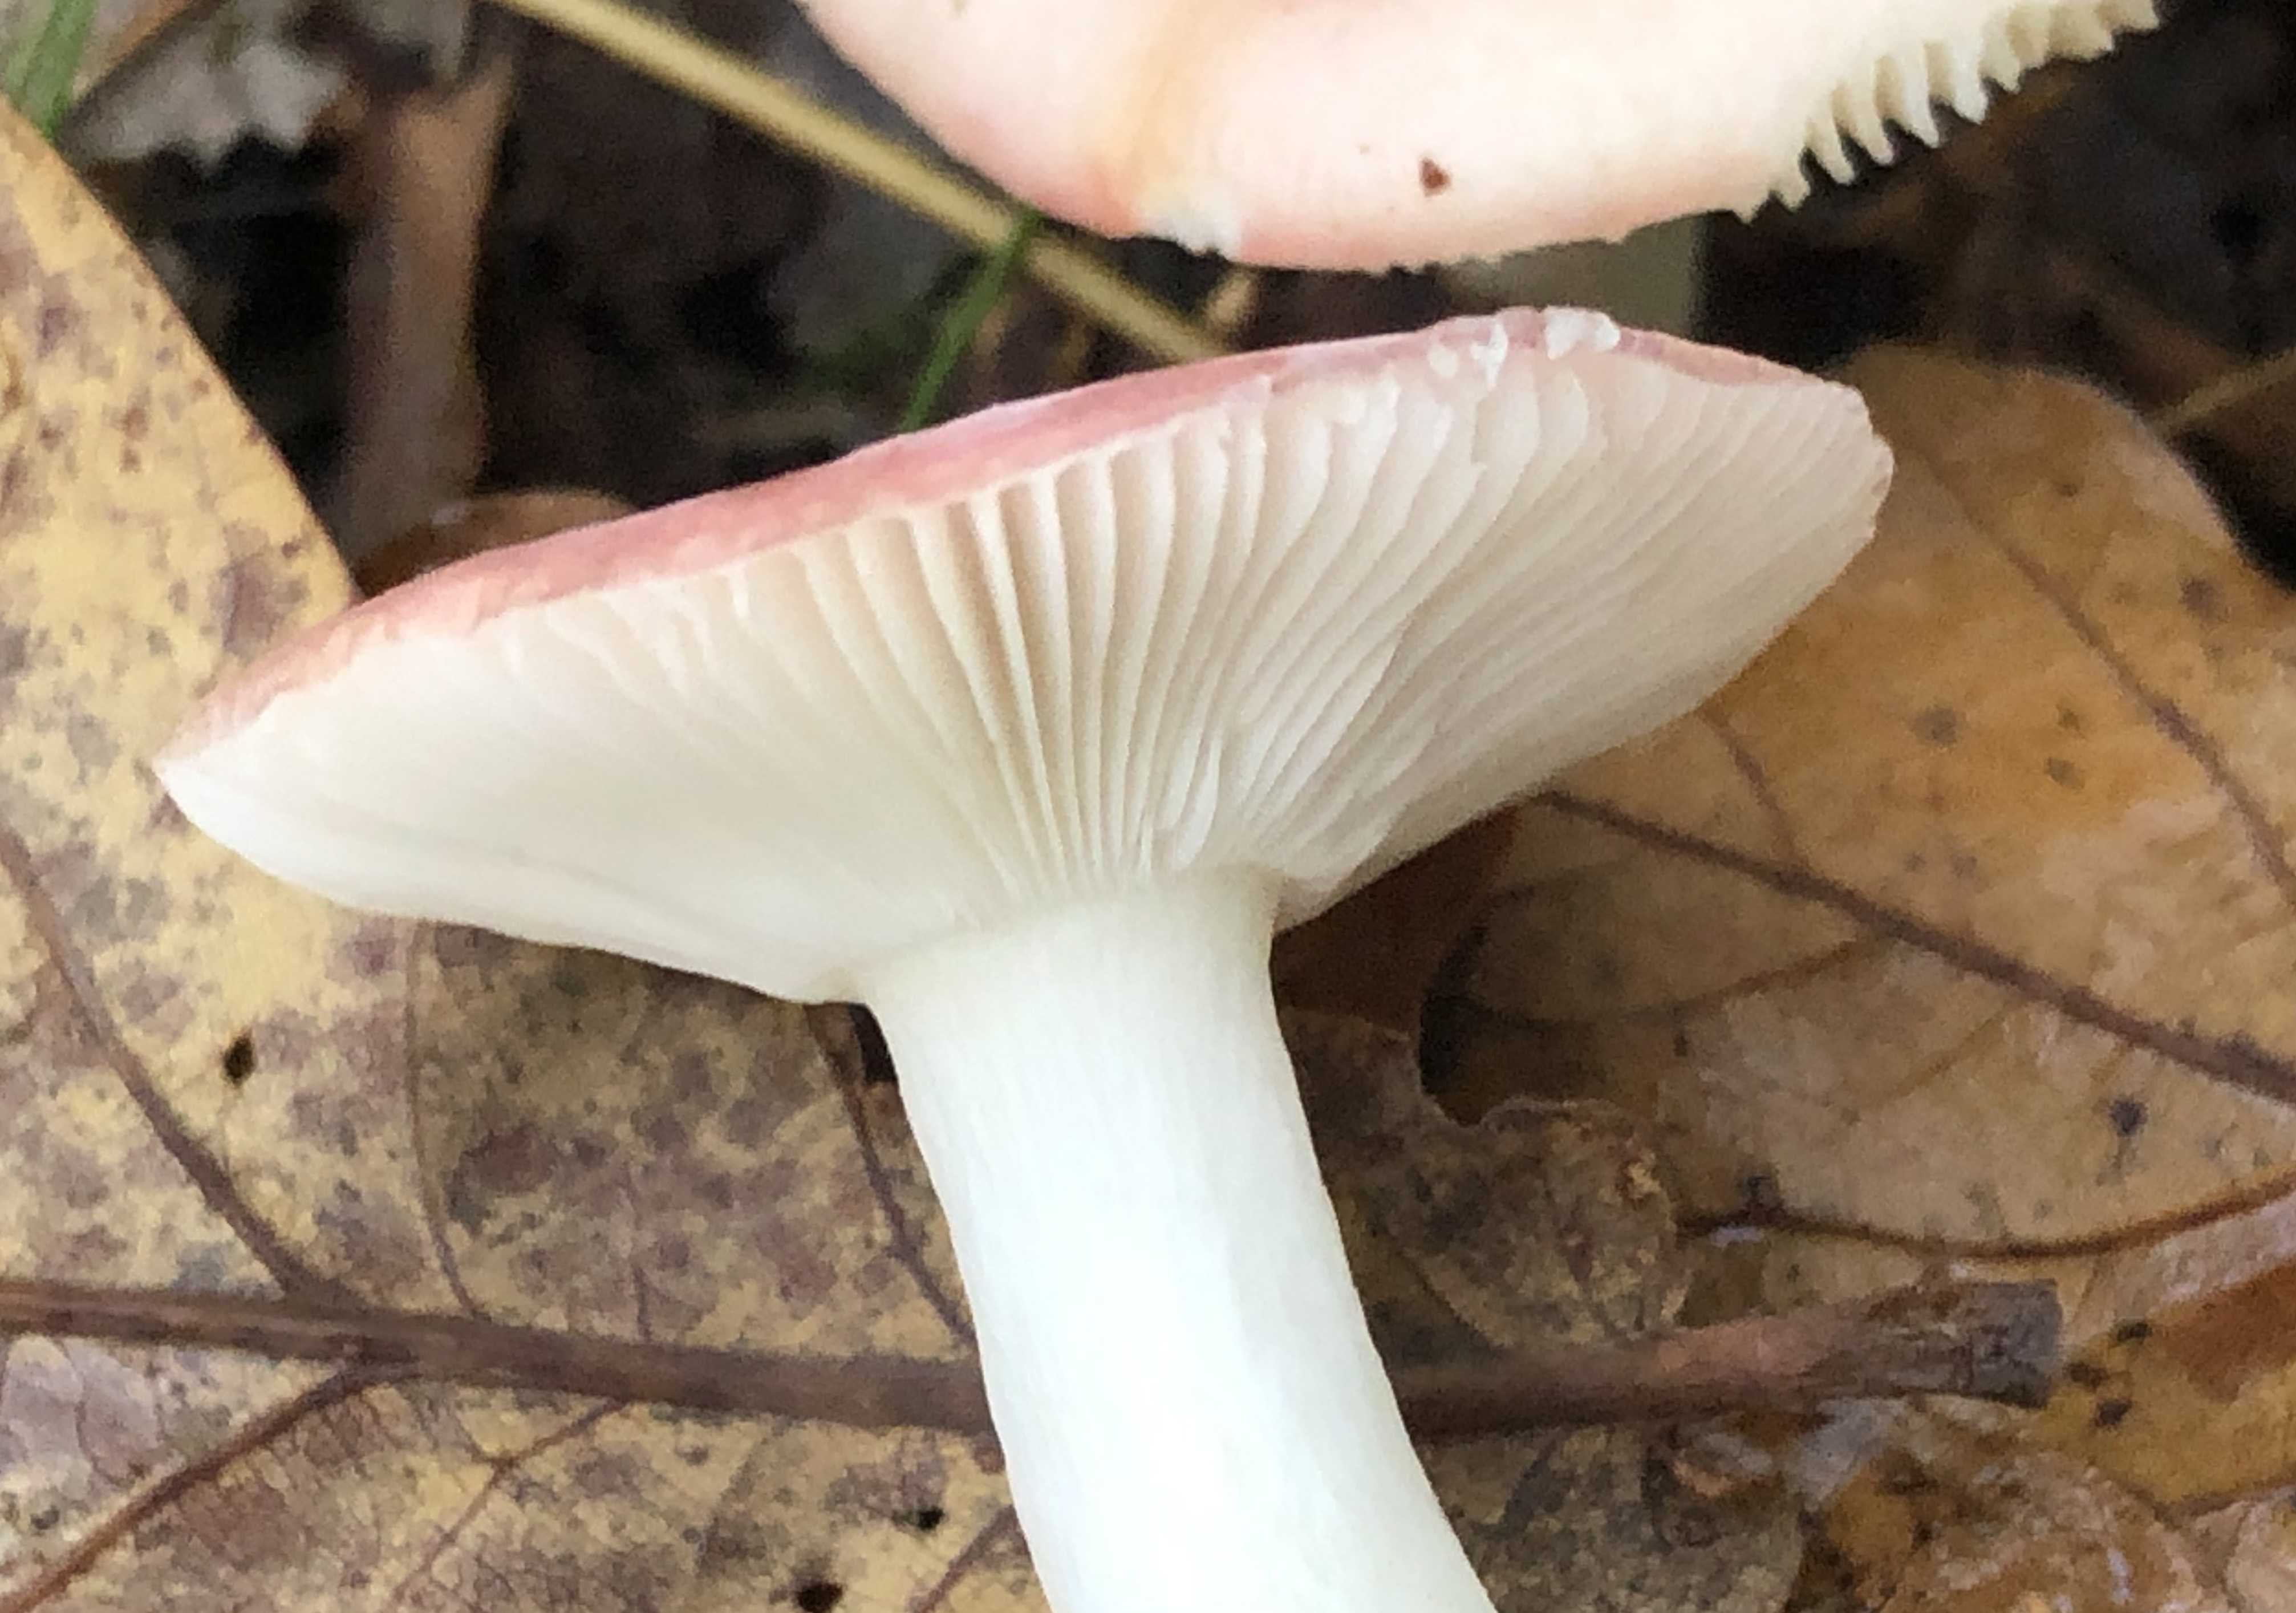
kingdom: Fungi
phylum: Basidiomycota
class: Agaricomycetes
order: Russulales
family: Russulaceae
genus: Russula
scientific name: Russula fragilis
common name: savbladet skørhat
